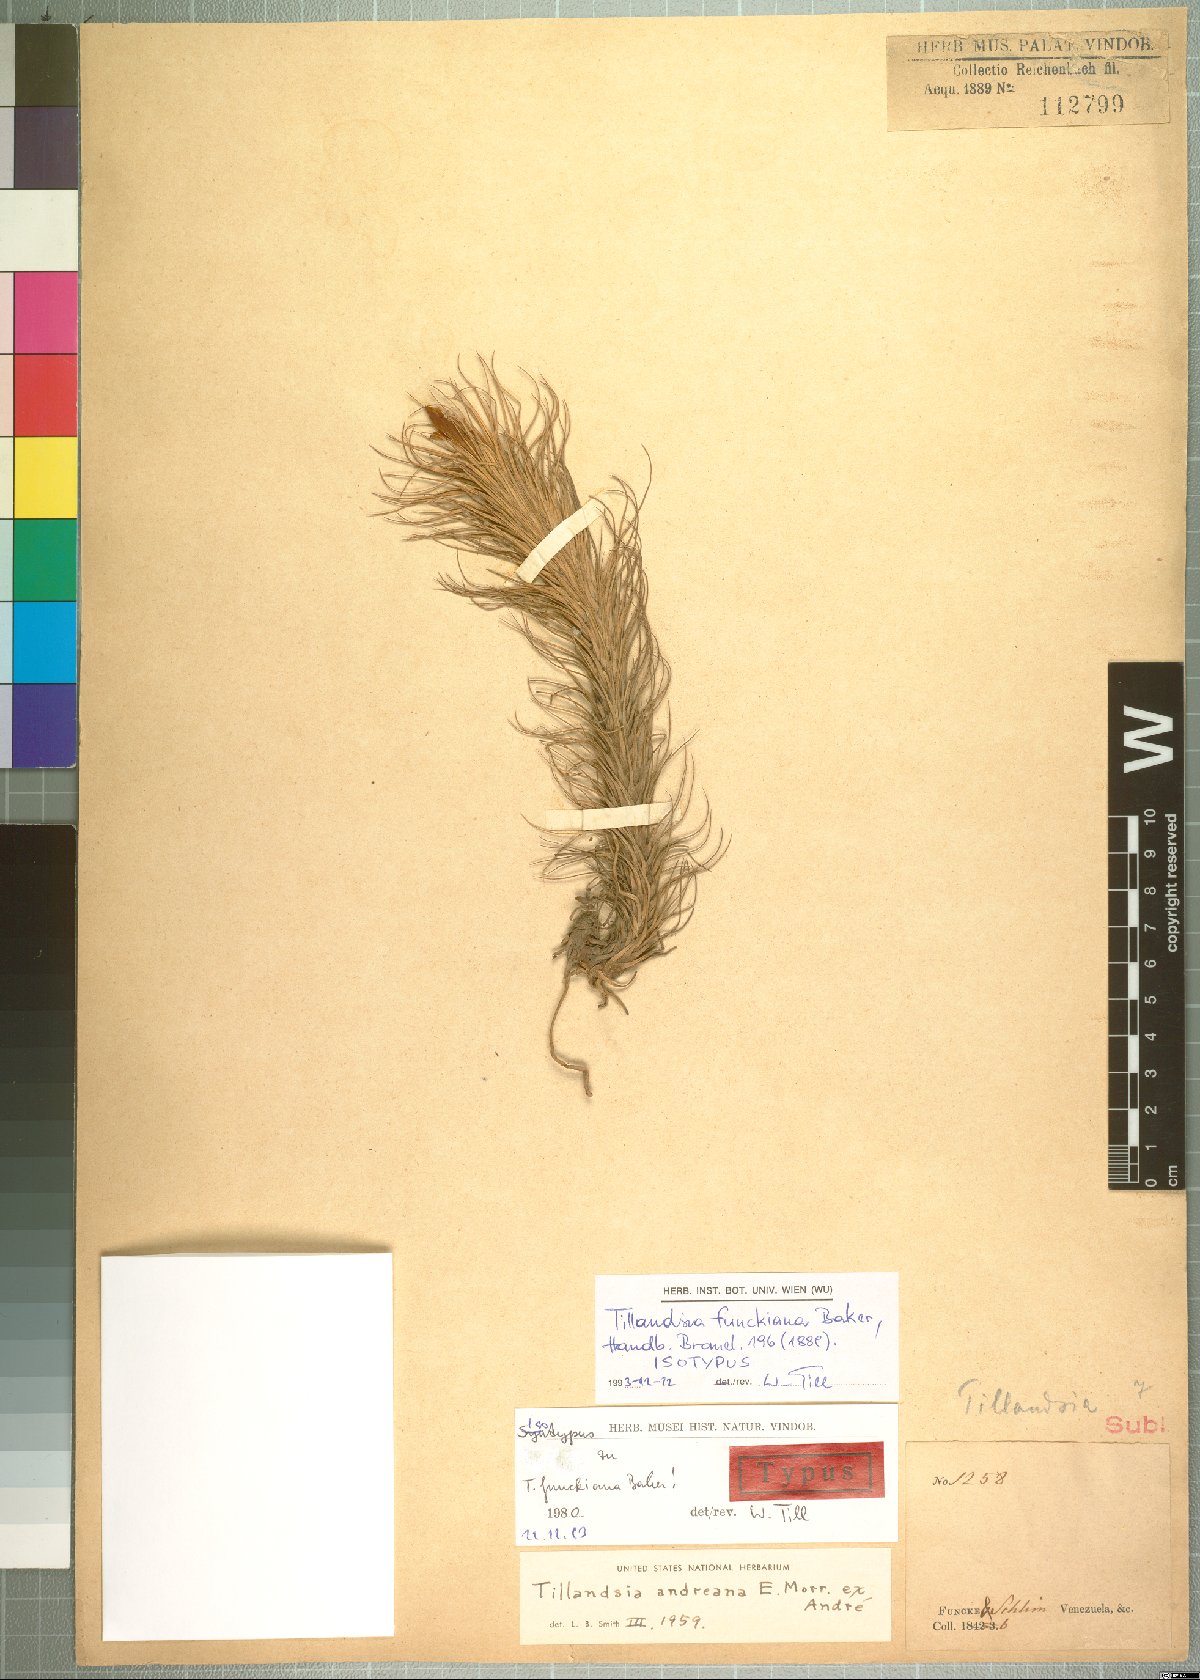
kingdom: Plantae
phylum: Tracheophyta
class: Liliopsida
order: Poales
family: Bromeliaceae
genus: Tillandsia
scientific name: Tillandsia andreana
